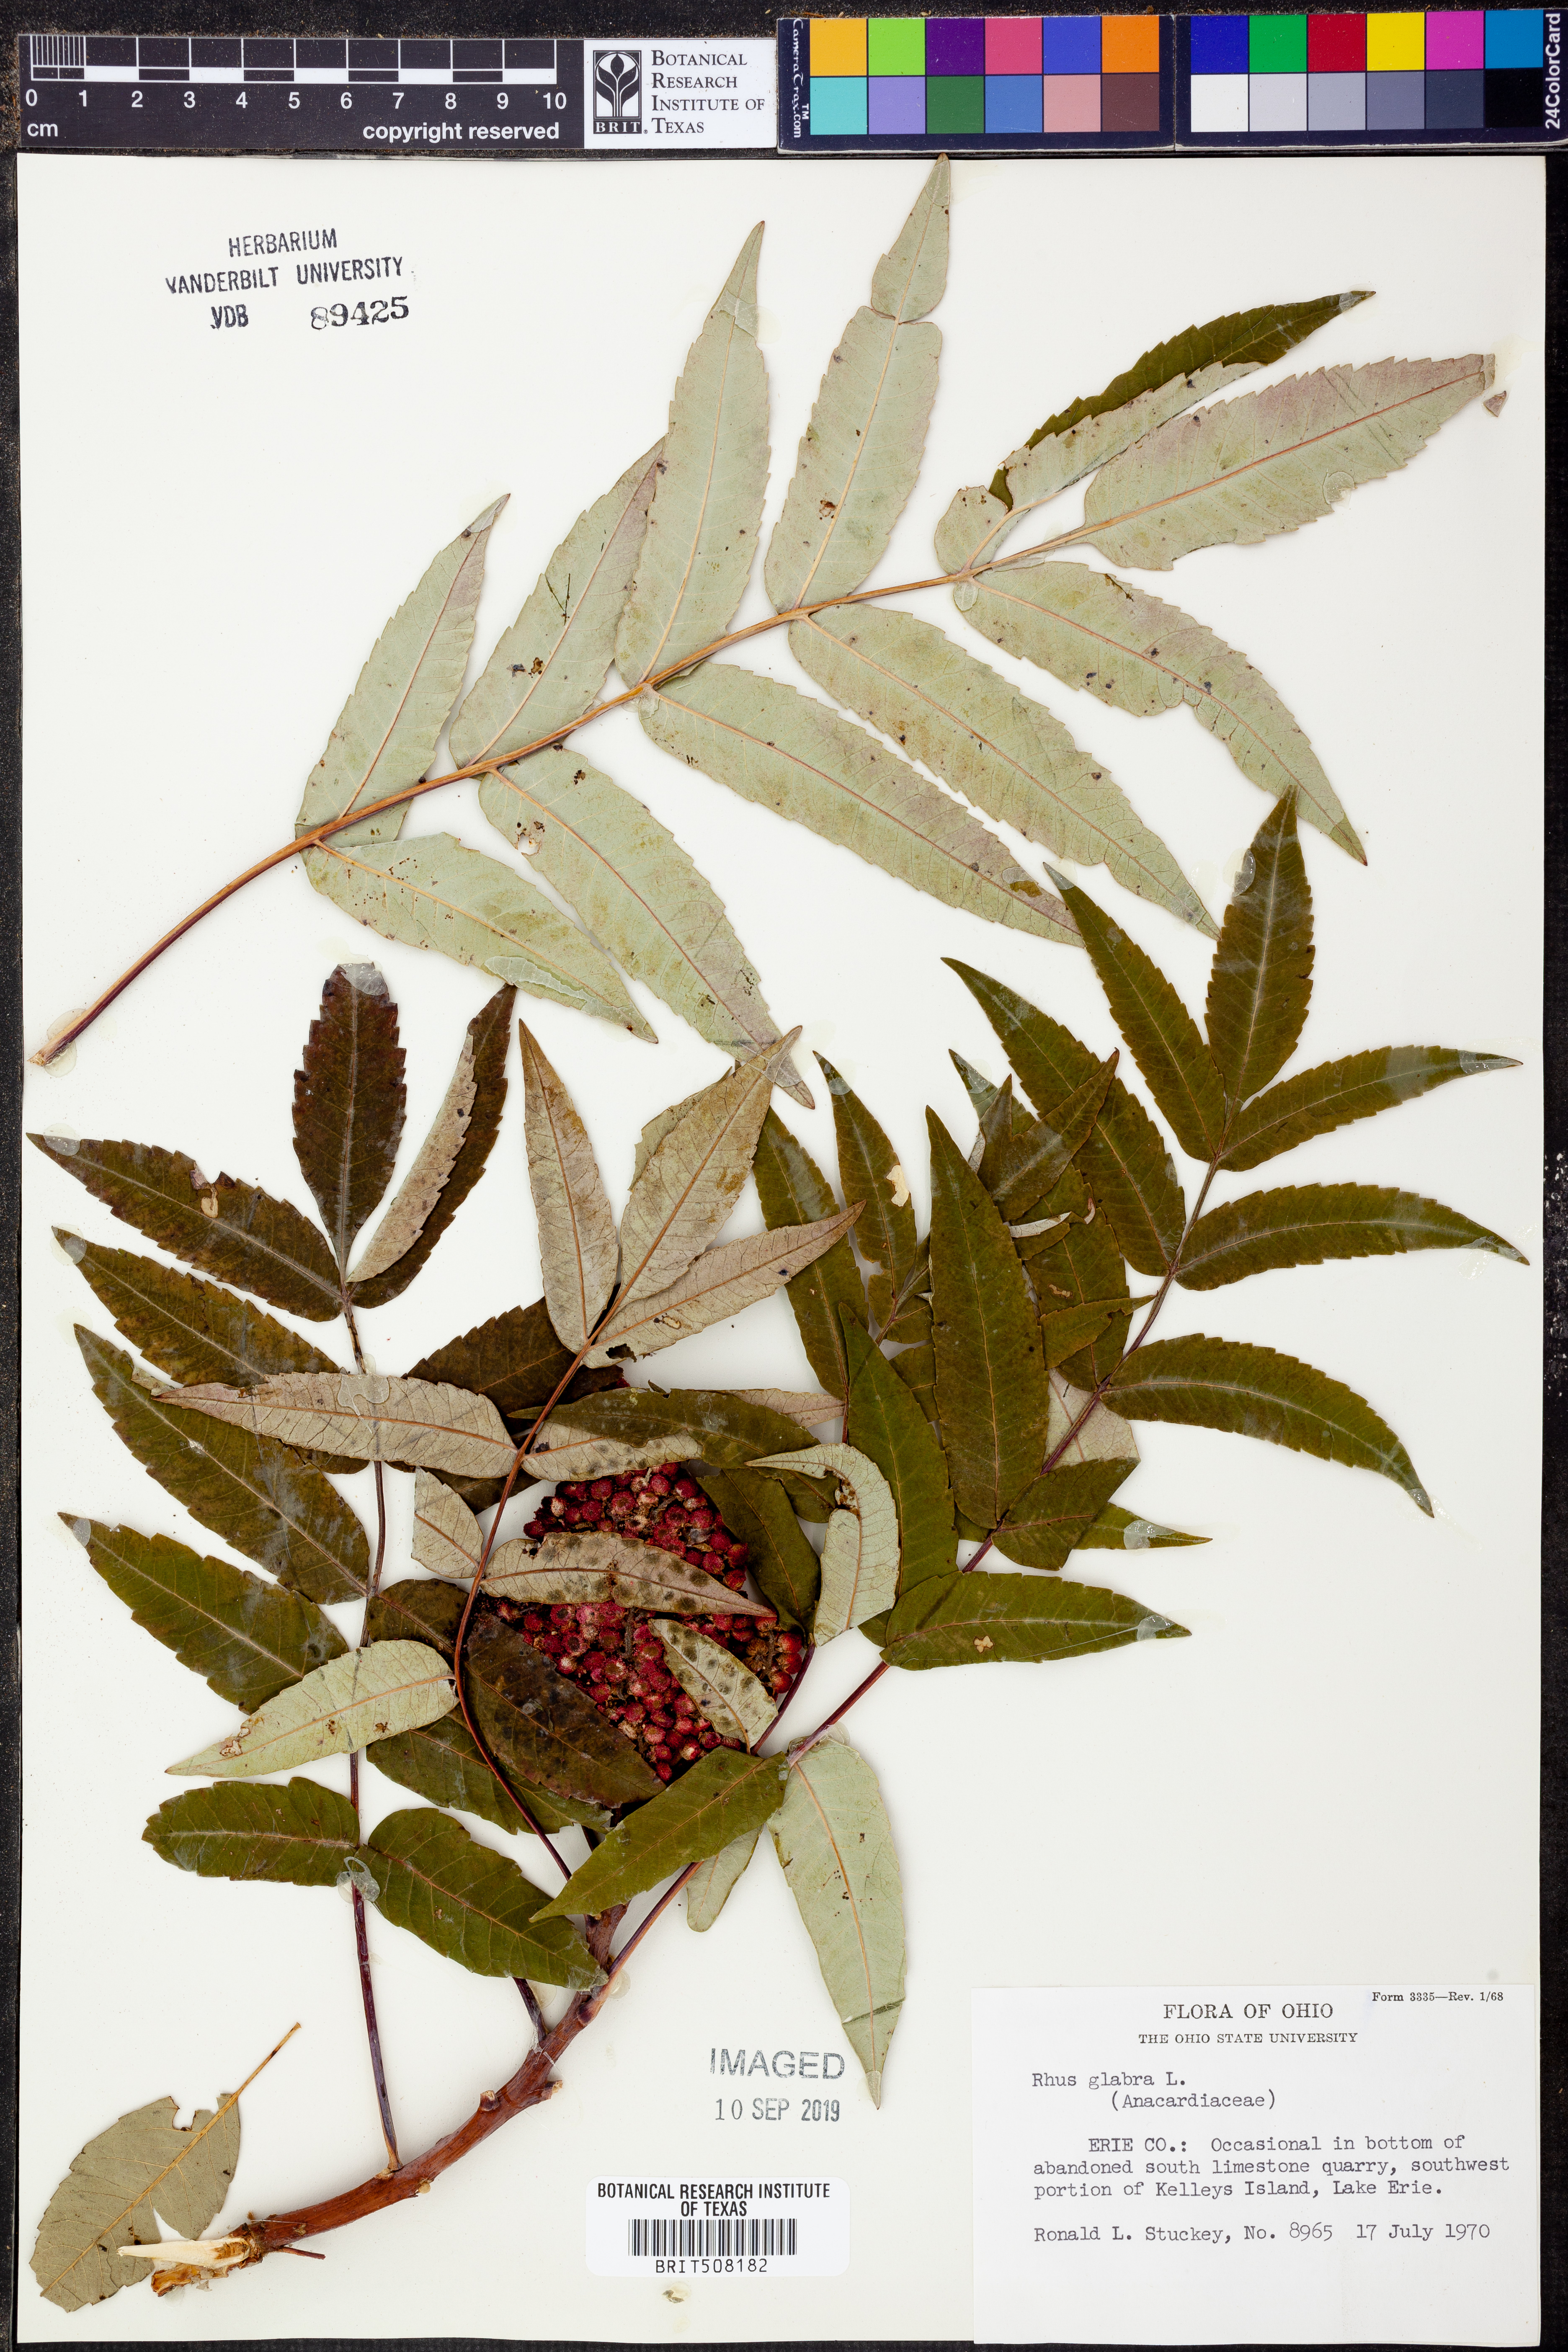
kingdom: Plantae
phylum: Tracheophyta
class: Magnoliopsida
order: Sapindales
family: Anacardiaceae
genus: Rhus
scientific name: Rhus glabra
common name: Scarlet sumac
